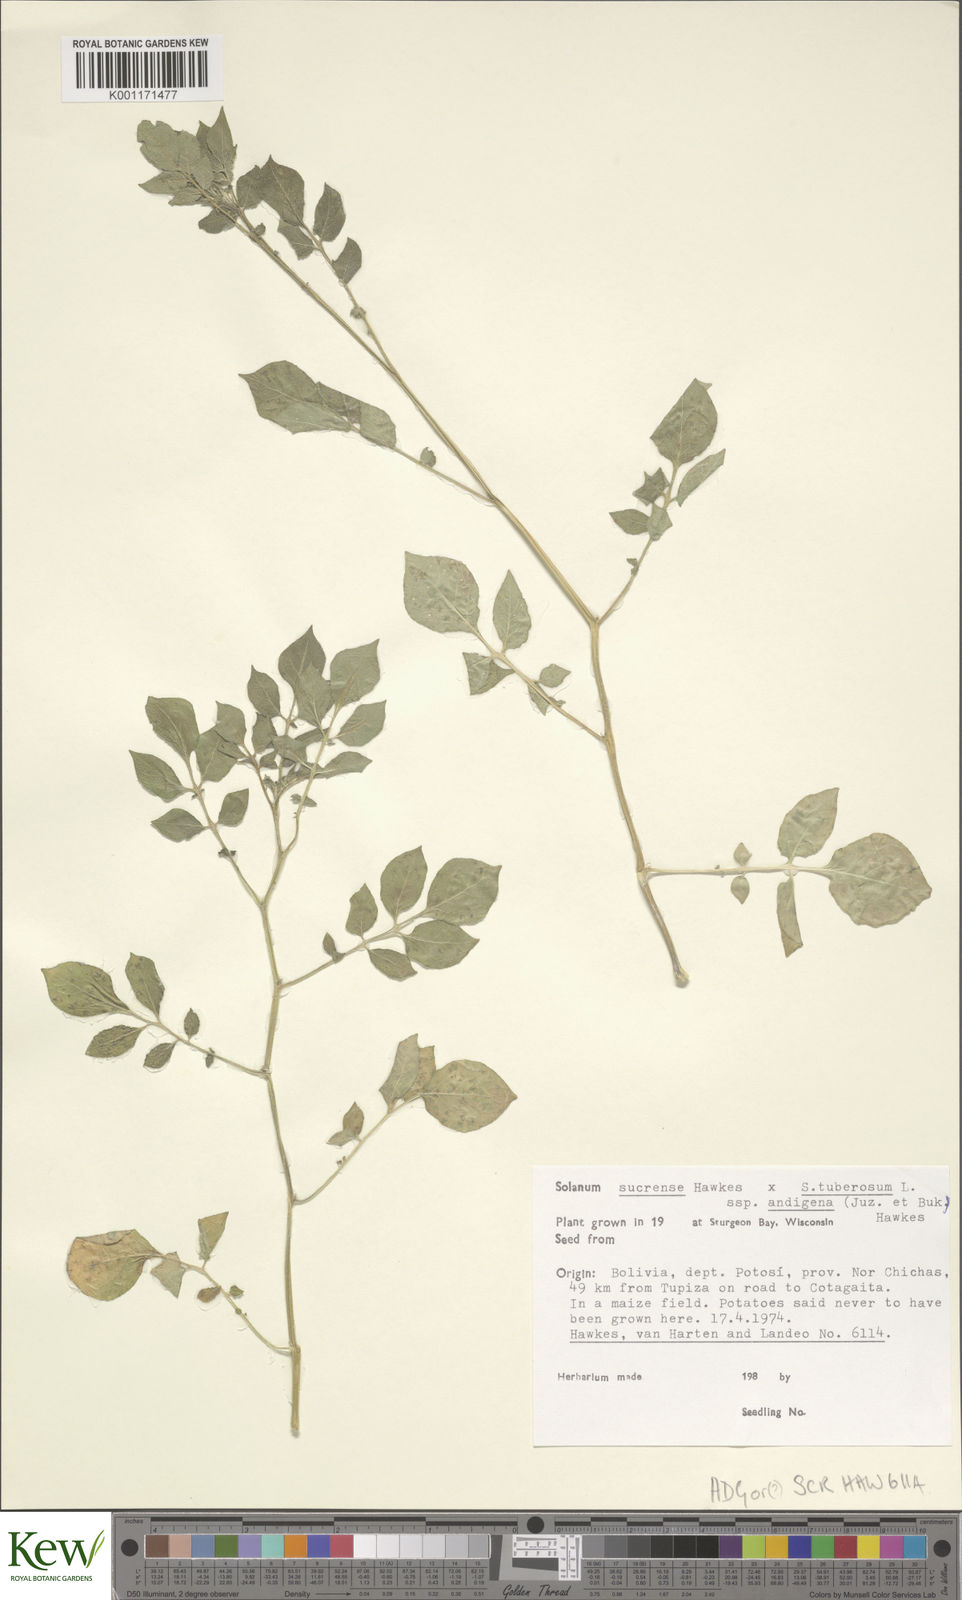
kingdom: Plantae
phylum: Tracheophyta
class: Magnoliopsida
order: Solanales
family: Solanaceae
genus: Solanum
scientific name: Solanum tuberosum
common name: Potato
